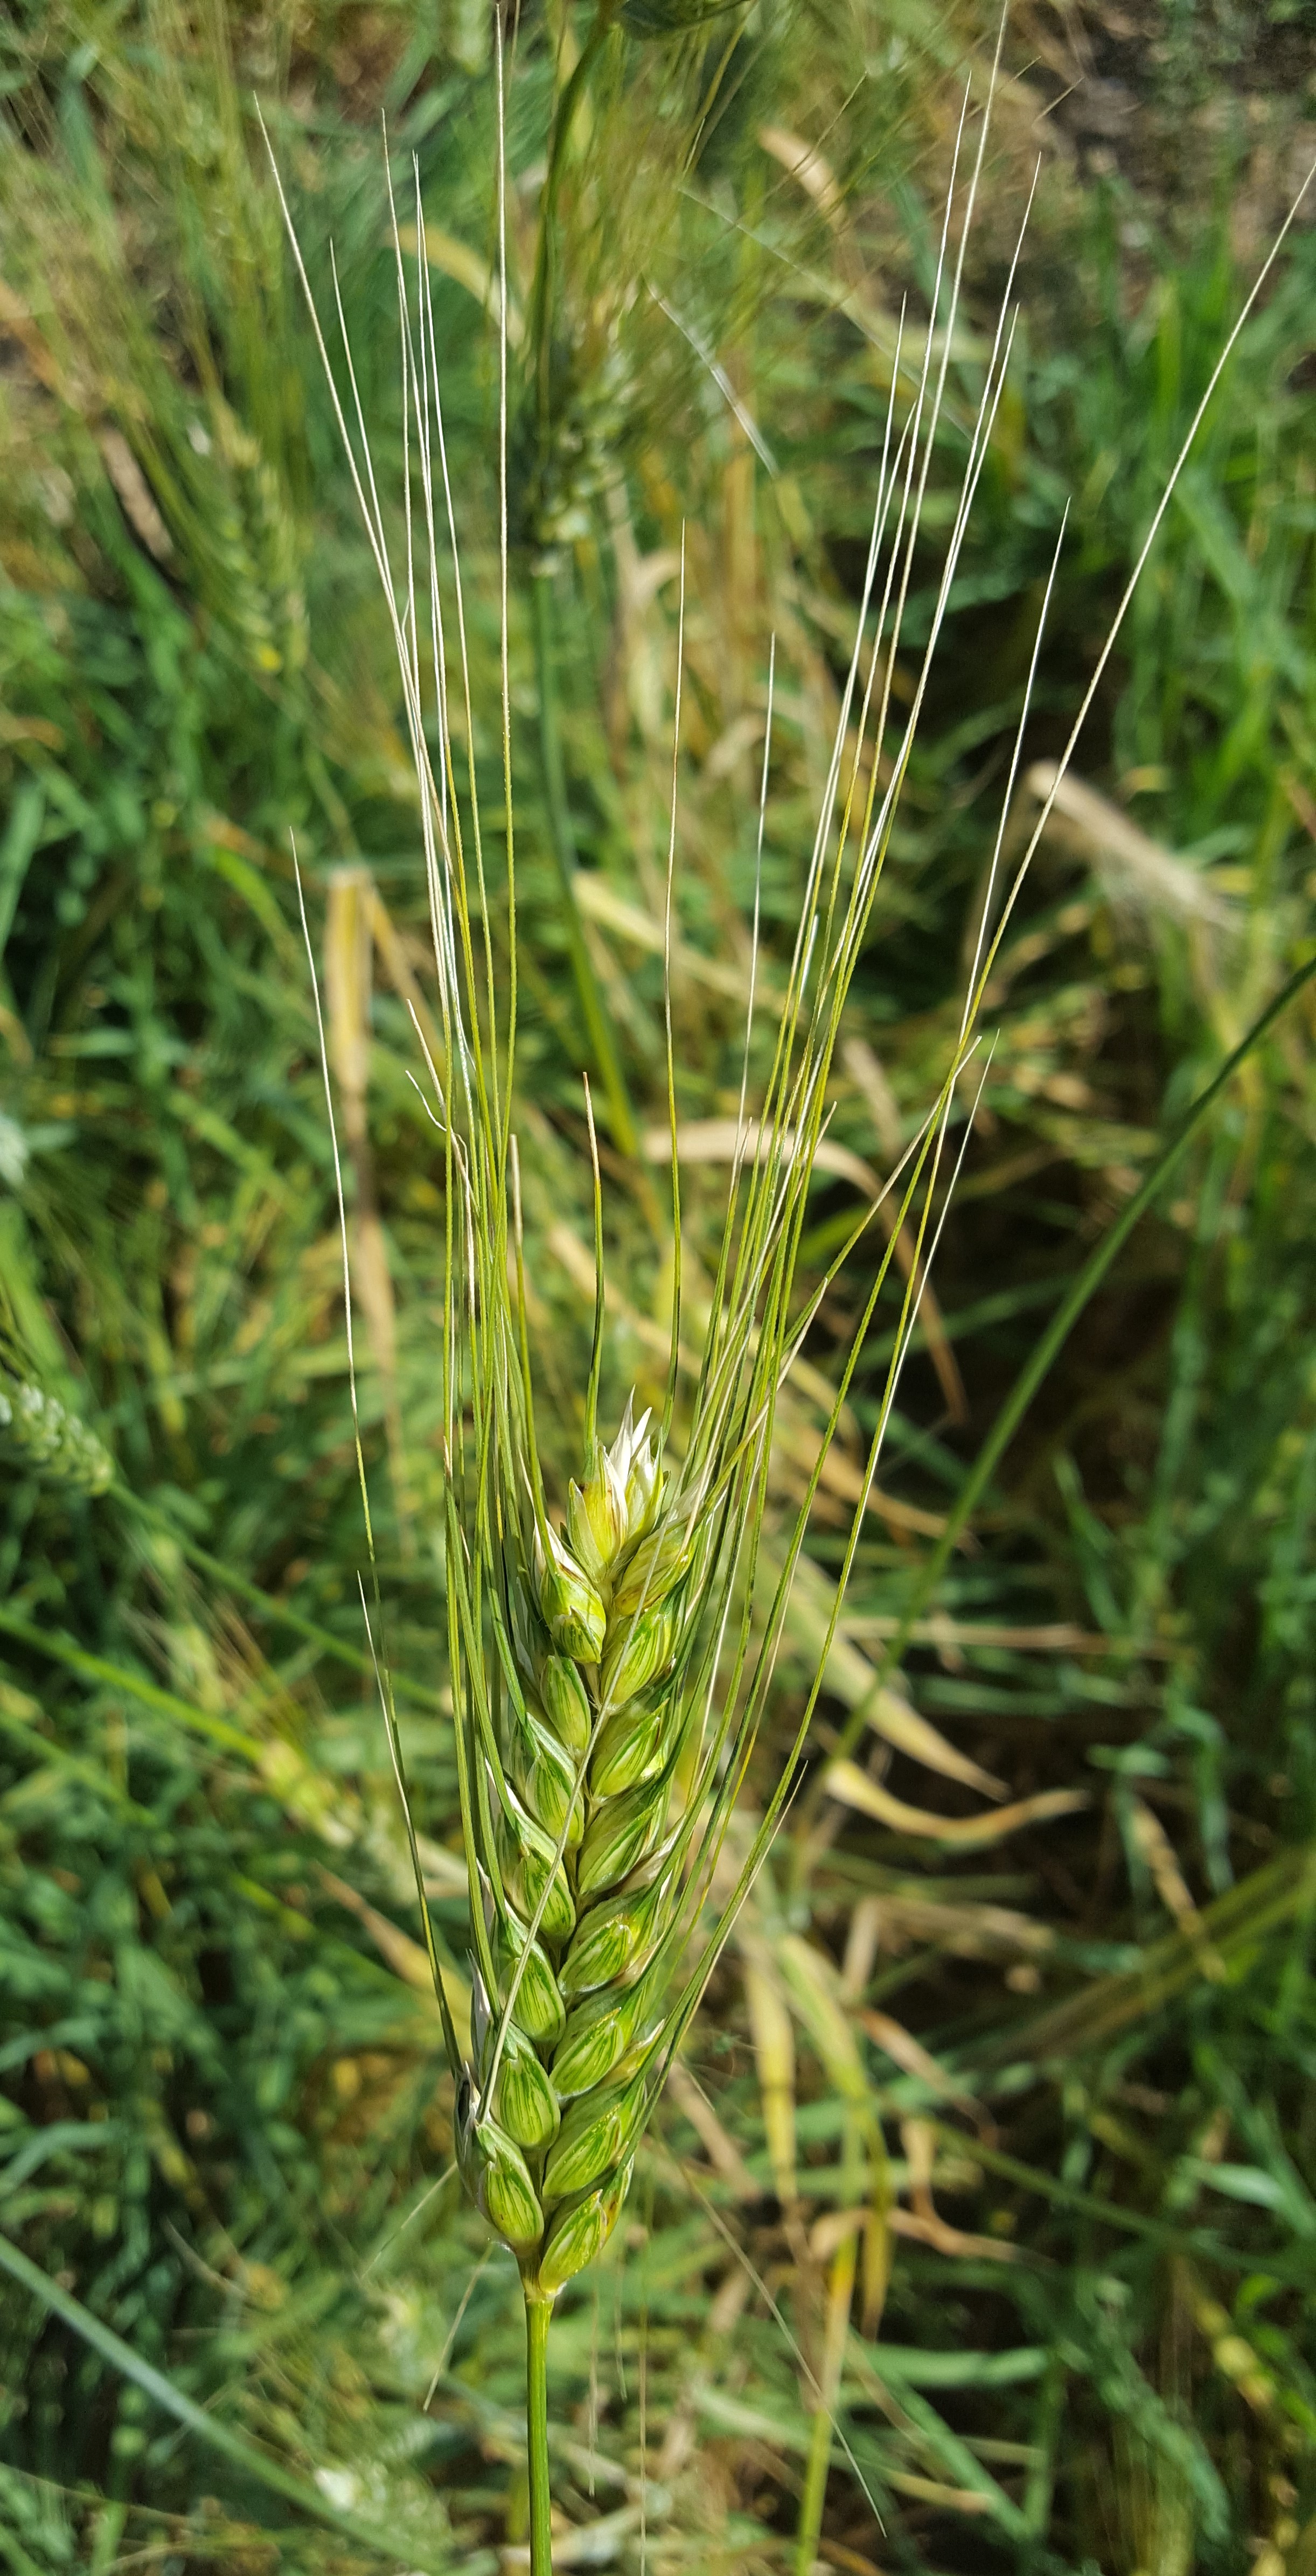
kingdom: Plantae
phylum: Tracheophyta
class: Liliopsida
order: Poales
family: Poaceae
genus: Triticum
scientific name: Triticum turgidum
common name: Rivet wheat
